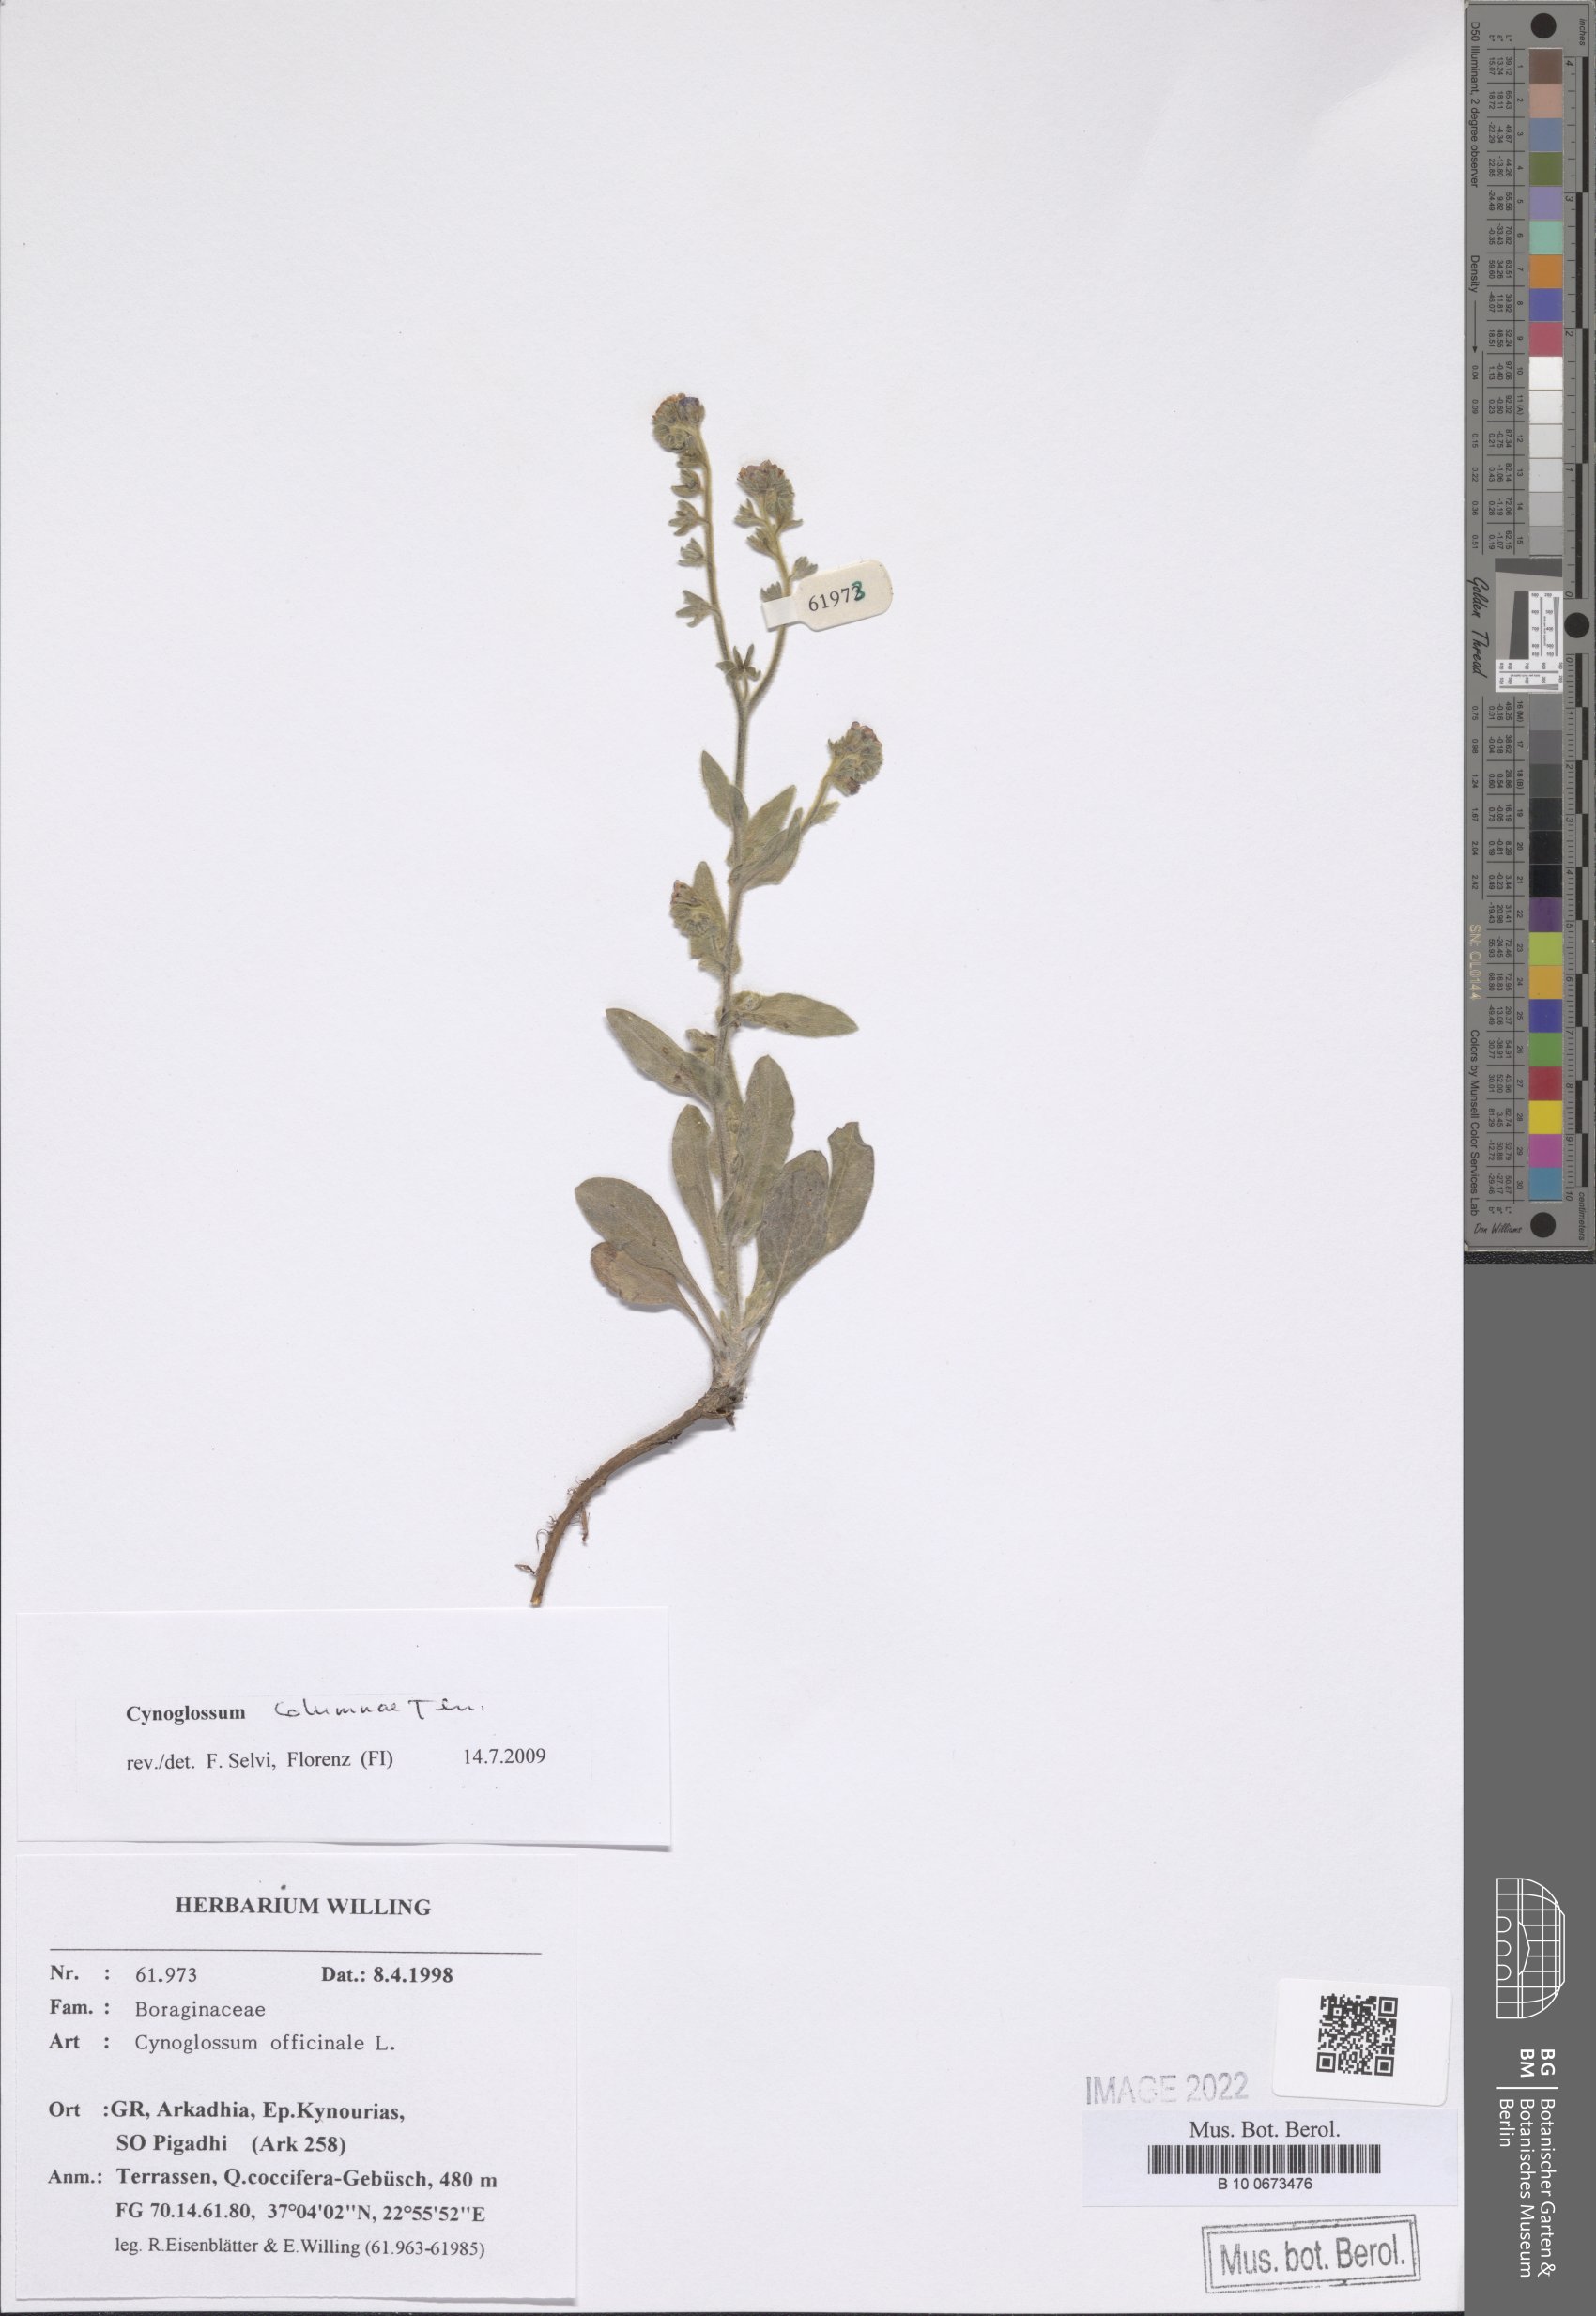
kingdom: Plantae
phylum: Tracheophyta
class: Magnoliopsida
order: Boraginales
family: Boraginaceae
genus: Rindera
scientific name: Rindera columnae
